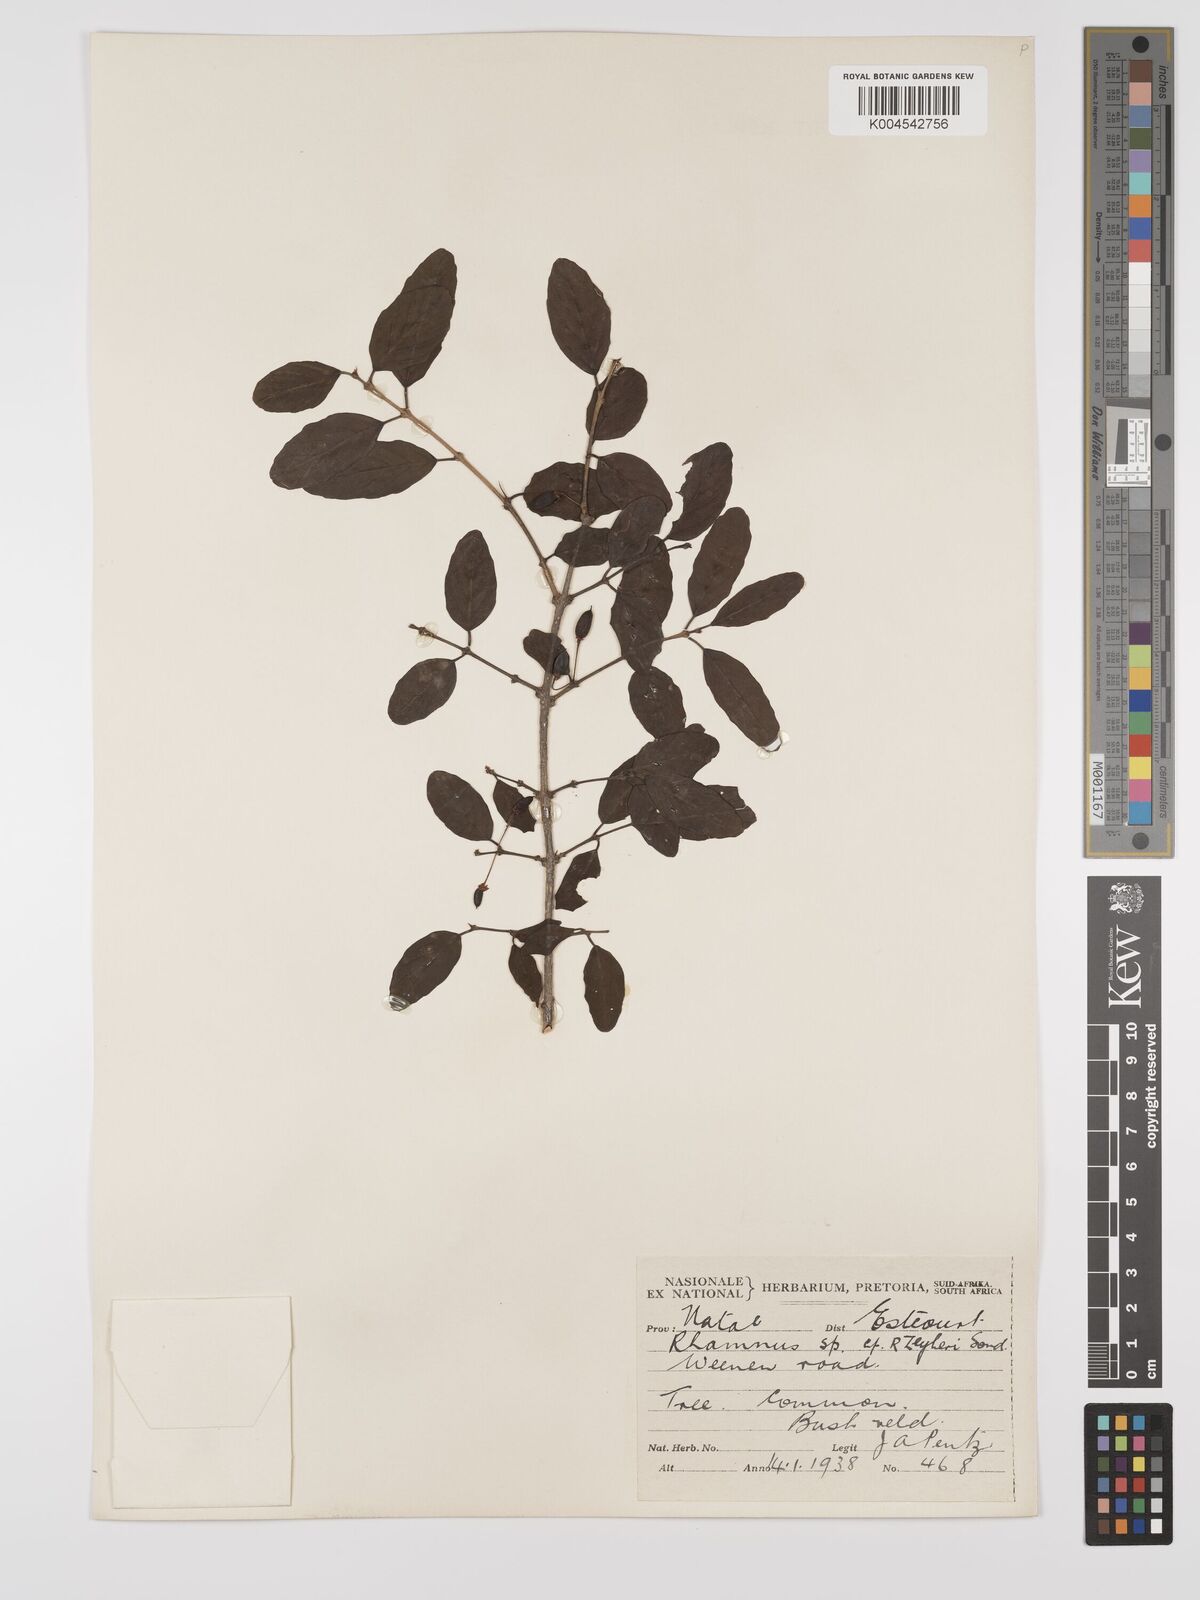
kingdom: Plantae
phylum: Tracheophyta
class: Magnoliopsida
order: Rosales
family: Rhamnaceae
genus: Phyllogeiton
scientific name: Phyllogeiton zeyheri
